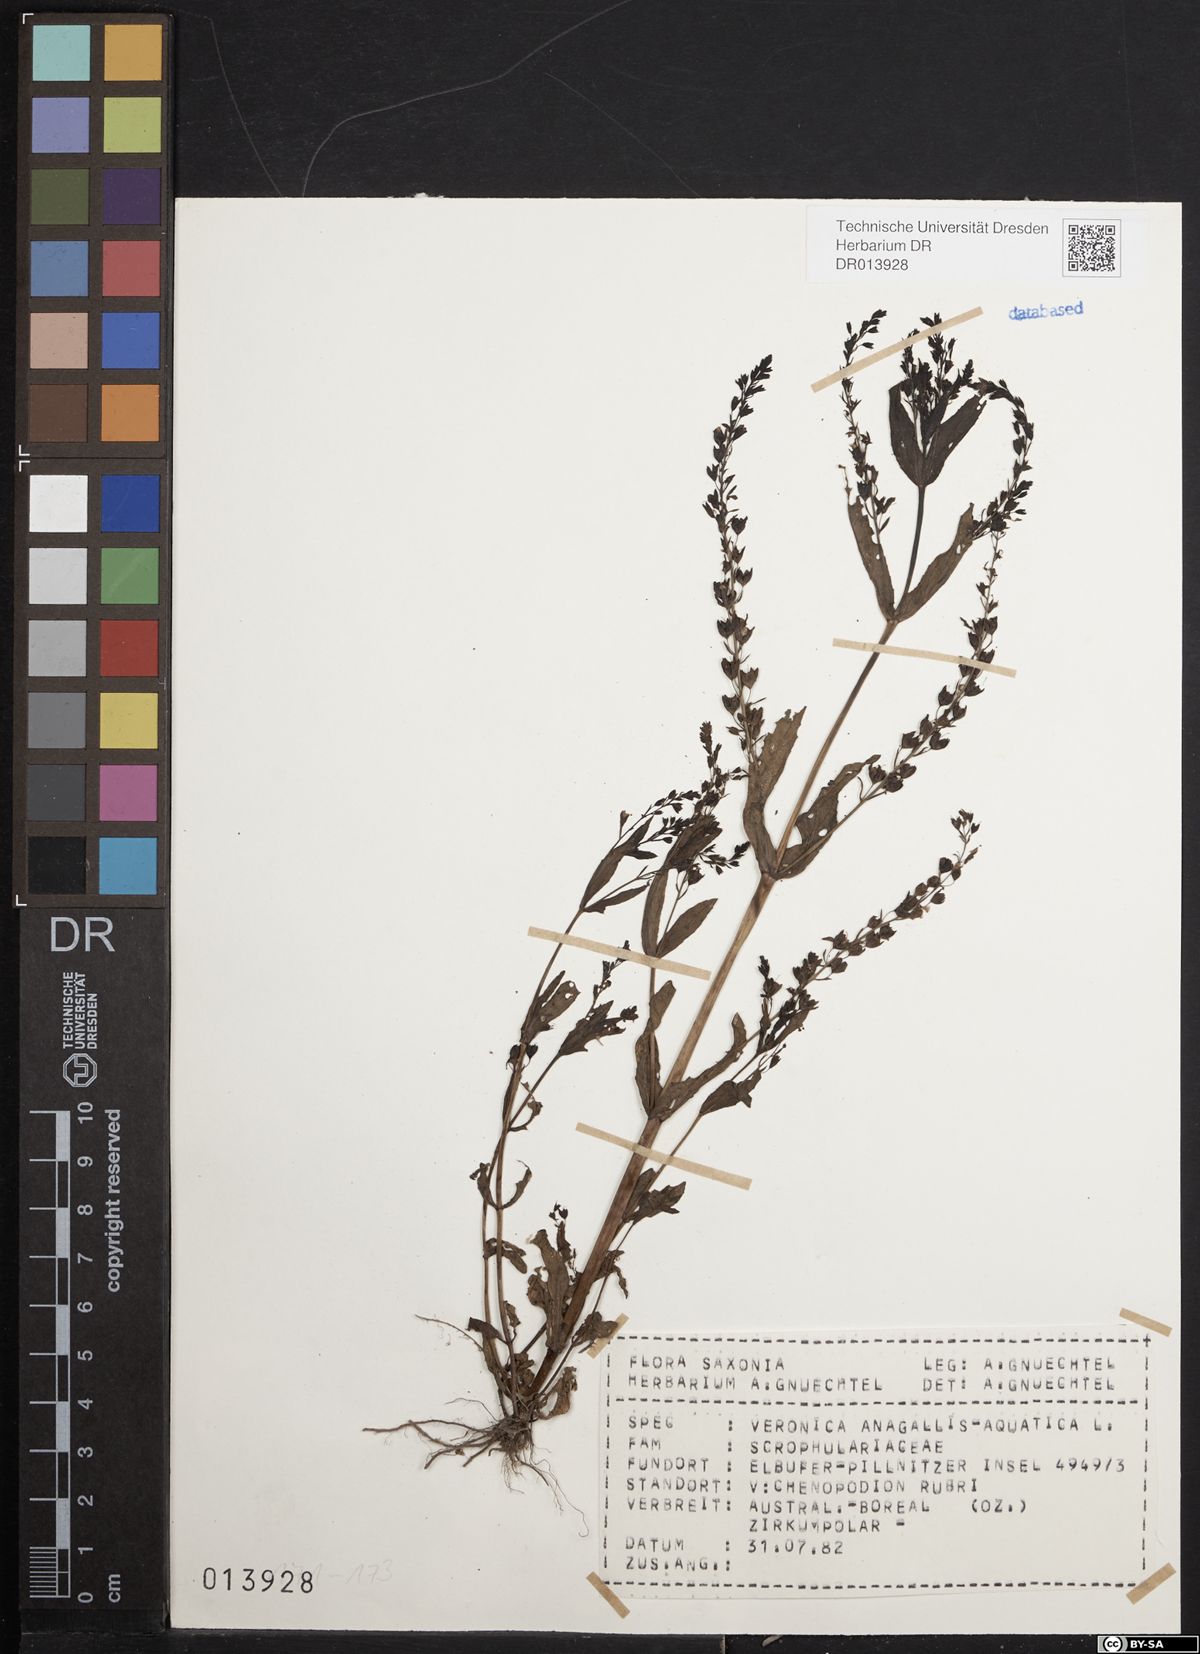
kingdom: Plantae
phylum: Tracheophyta
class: Magnoliopsida
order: Lamiales
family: Plantaginaceae
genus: Veronica
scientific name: Veronica anagallis-aquatica
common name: Water speedwell
